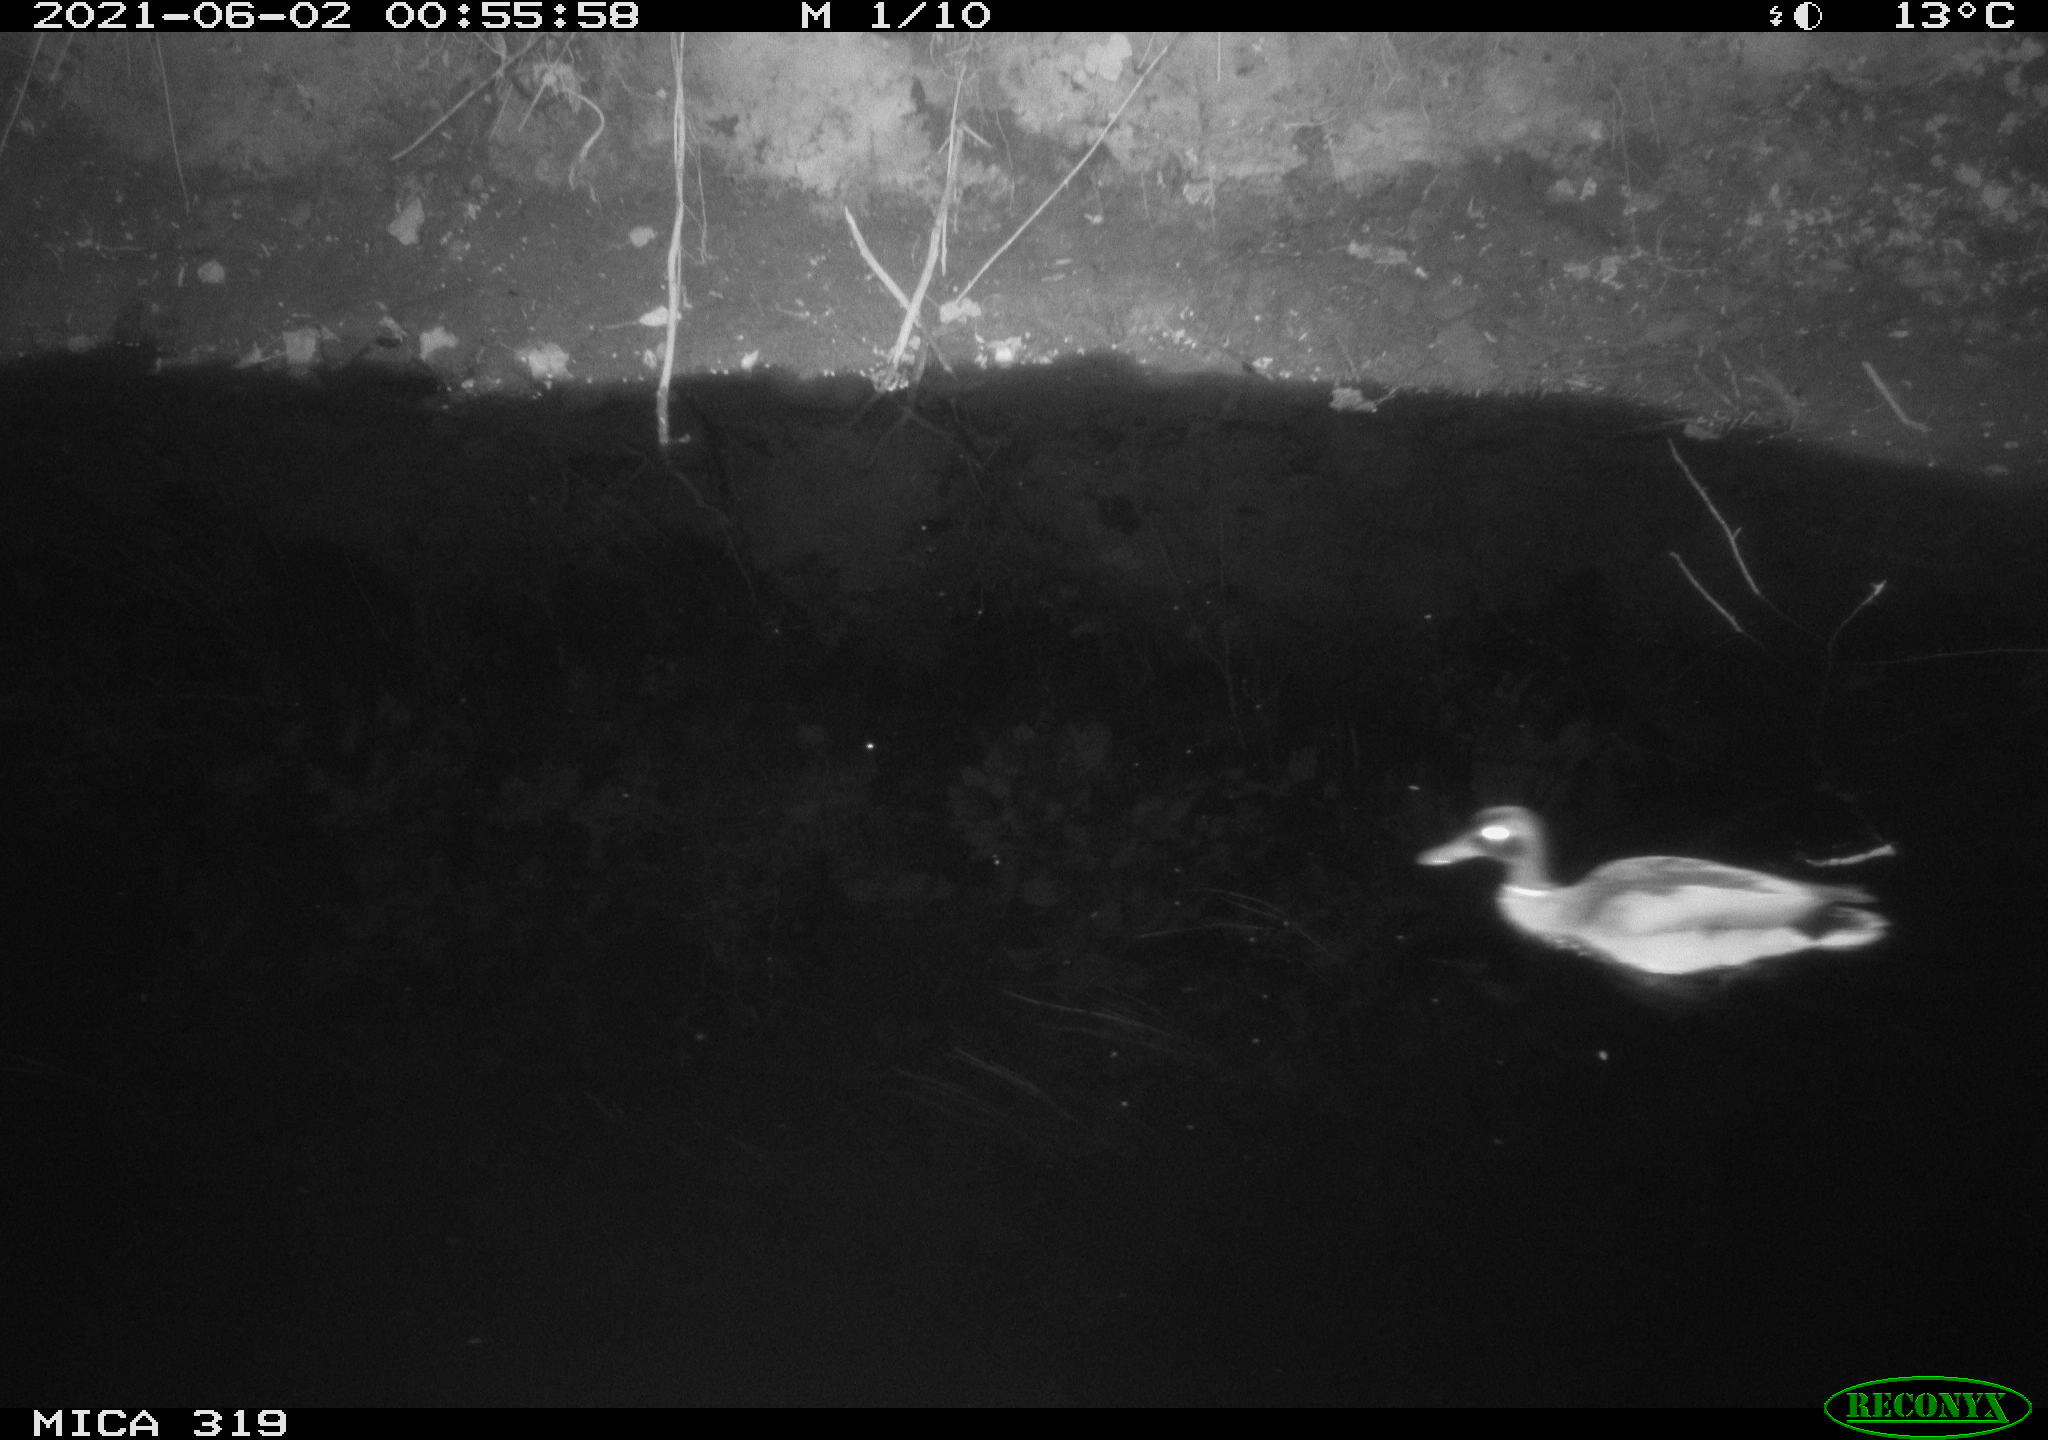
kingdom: Animalia
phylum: Chordata
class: Aves
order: Anseriformes
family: Anatidae
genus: Anas
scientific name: Anas platyrhynchos
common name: Mallard
